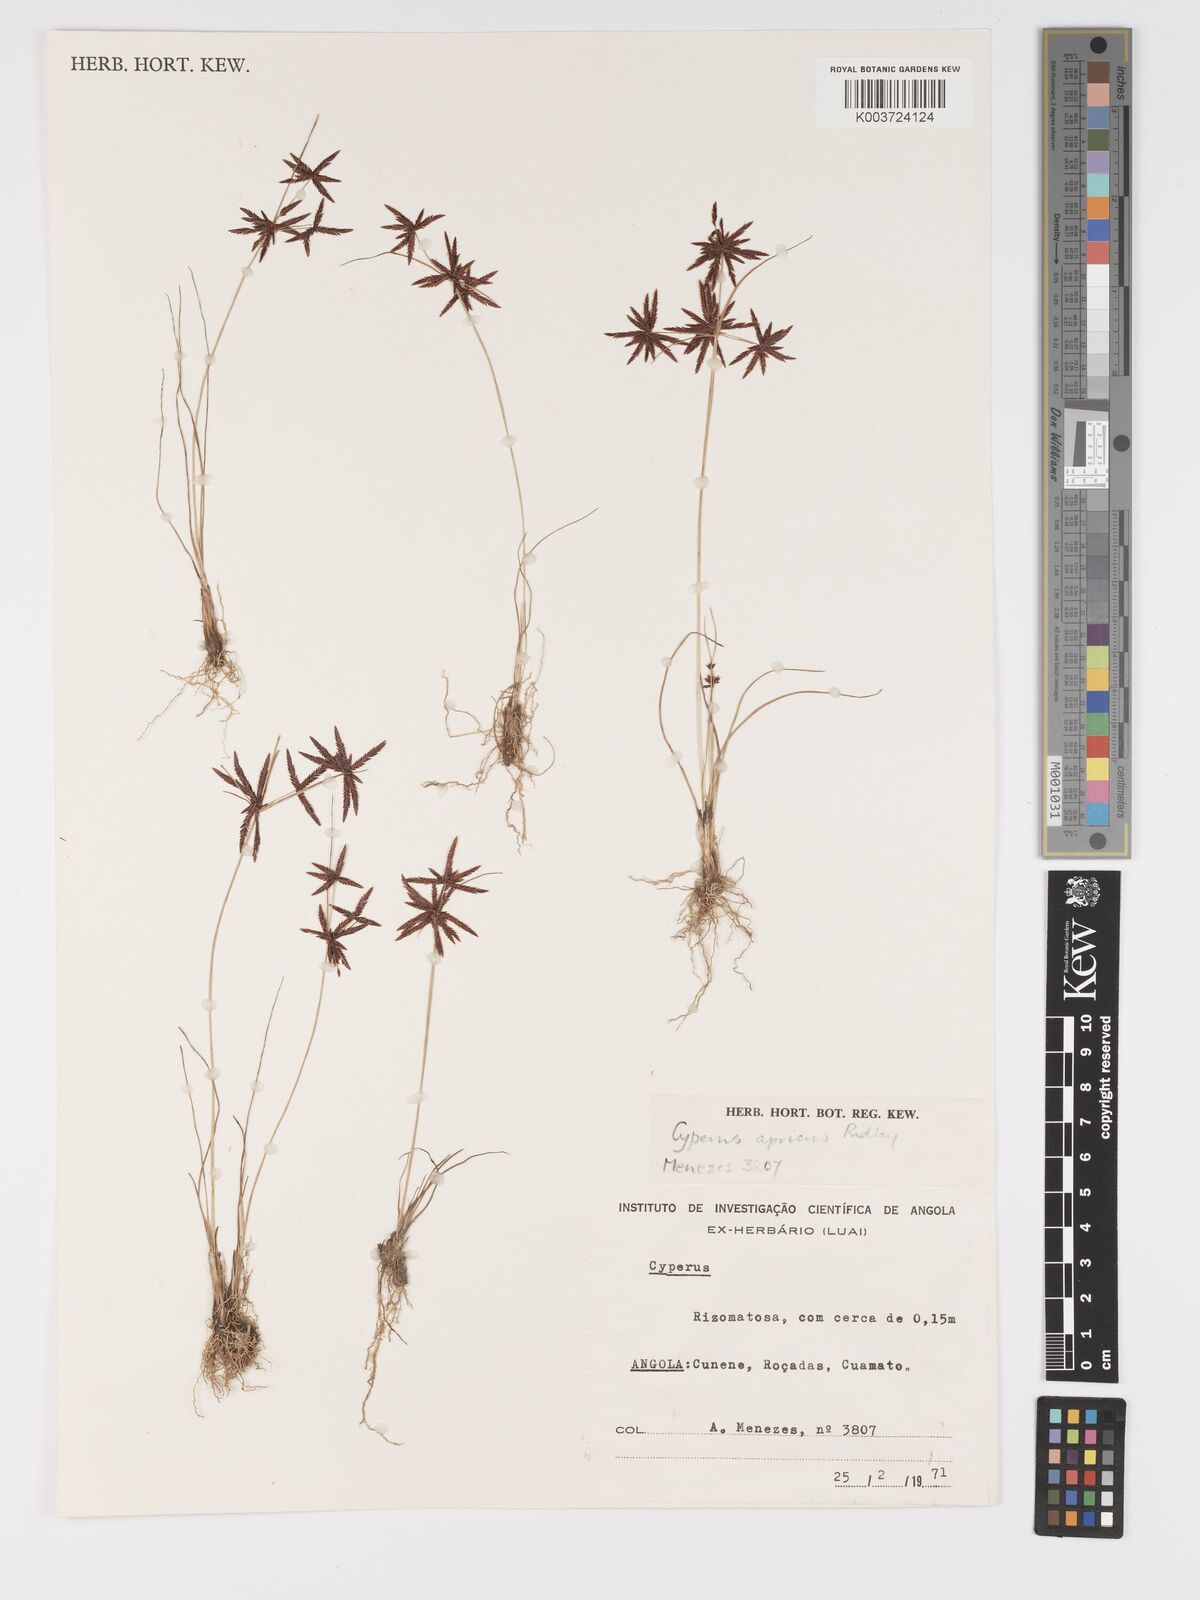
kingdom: Plantae
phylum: Tracheophyta
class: Liliopsida
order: Poales
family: Cyperaceae
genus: Cyperus
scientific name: Cyperus semitrifidus
